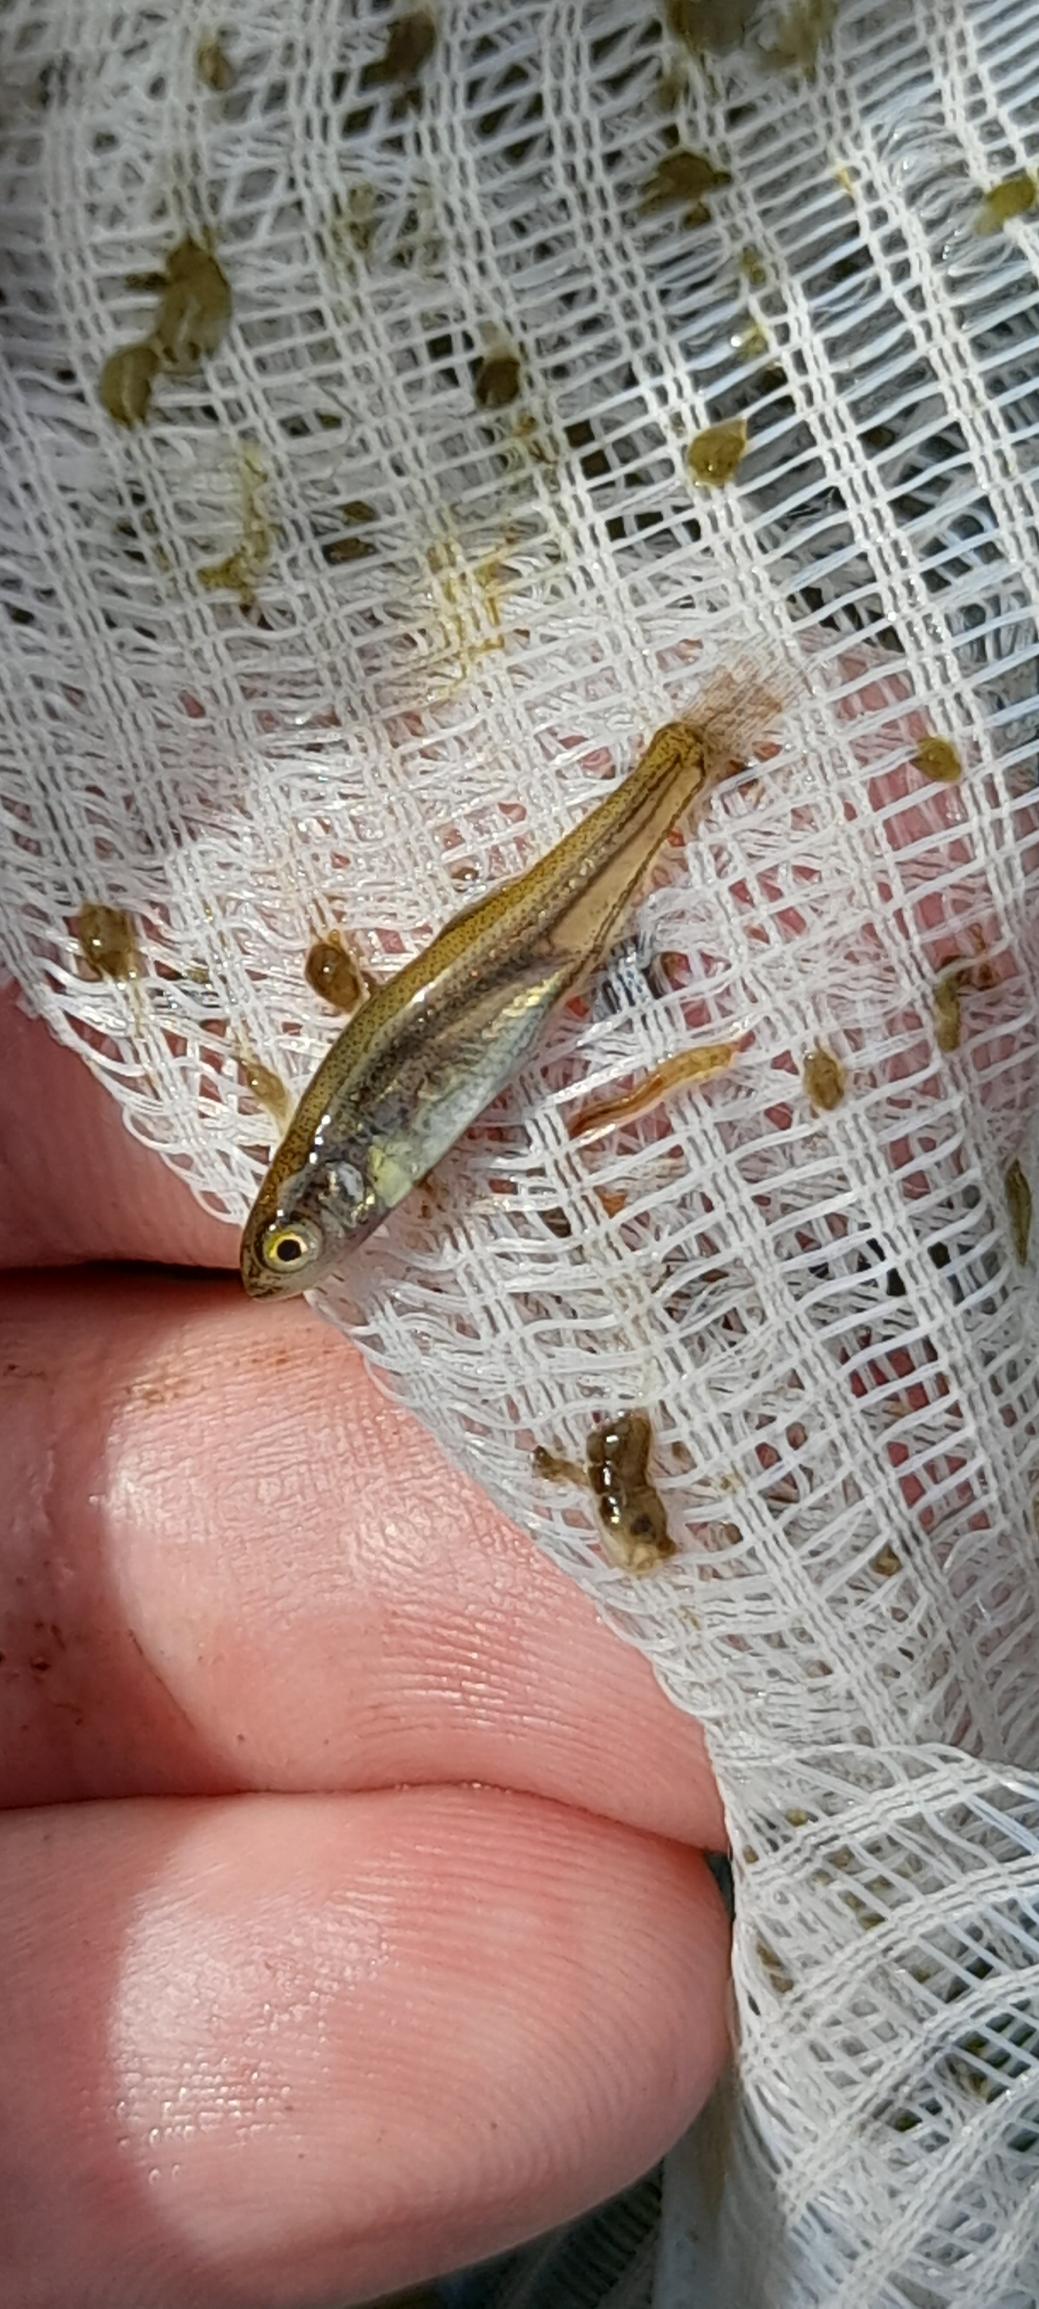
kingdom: Animalia
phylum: Chordata
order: Cypriniformes
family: Cyprinidae
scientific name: Cyprinidae
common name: Karpefamilien
